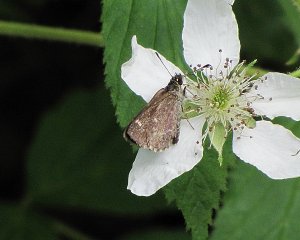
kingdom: Animalia
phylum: Arthropoda
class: Insecta
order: Lepidoptera
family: Hesperiidae
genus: Mastor
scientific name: Mastor hegon
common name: Pepper and Salt Skipper
